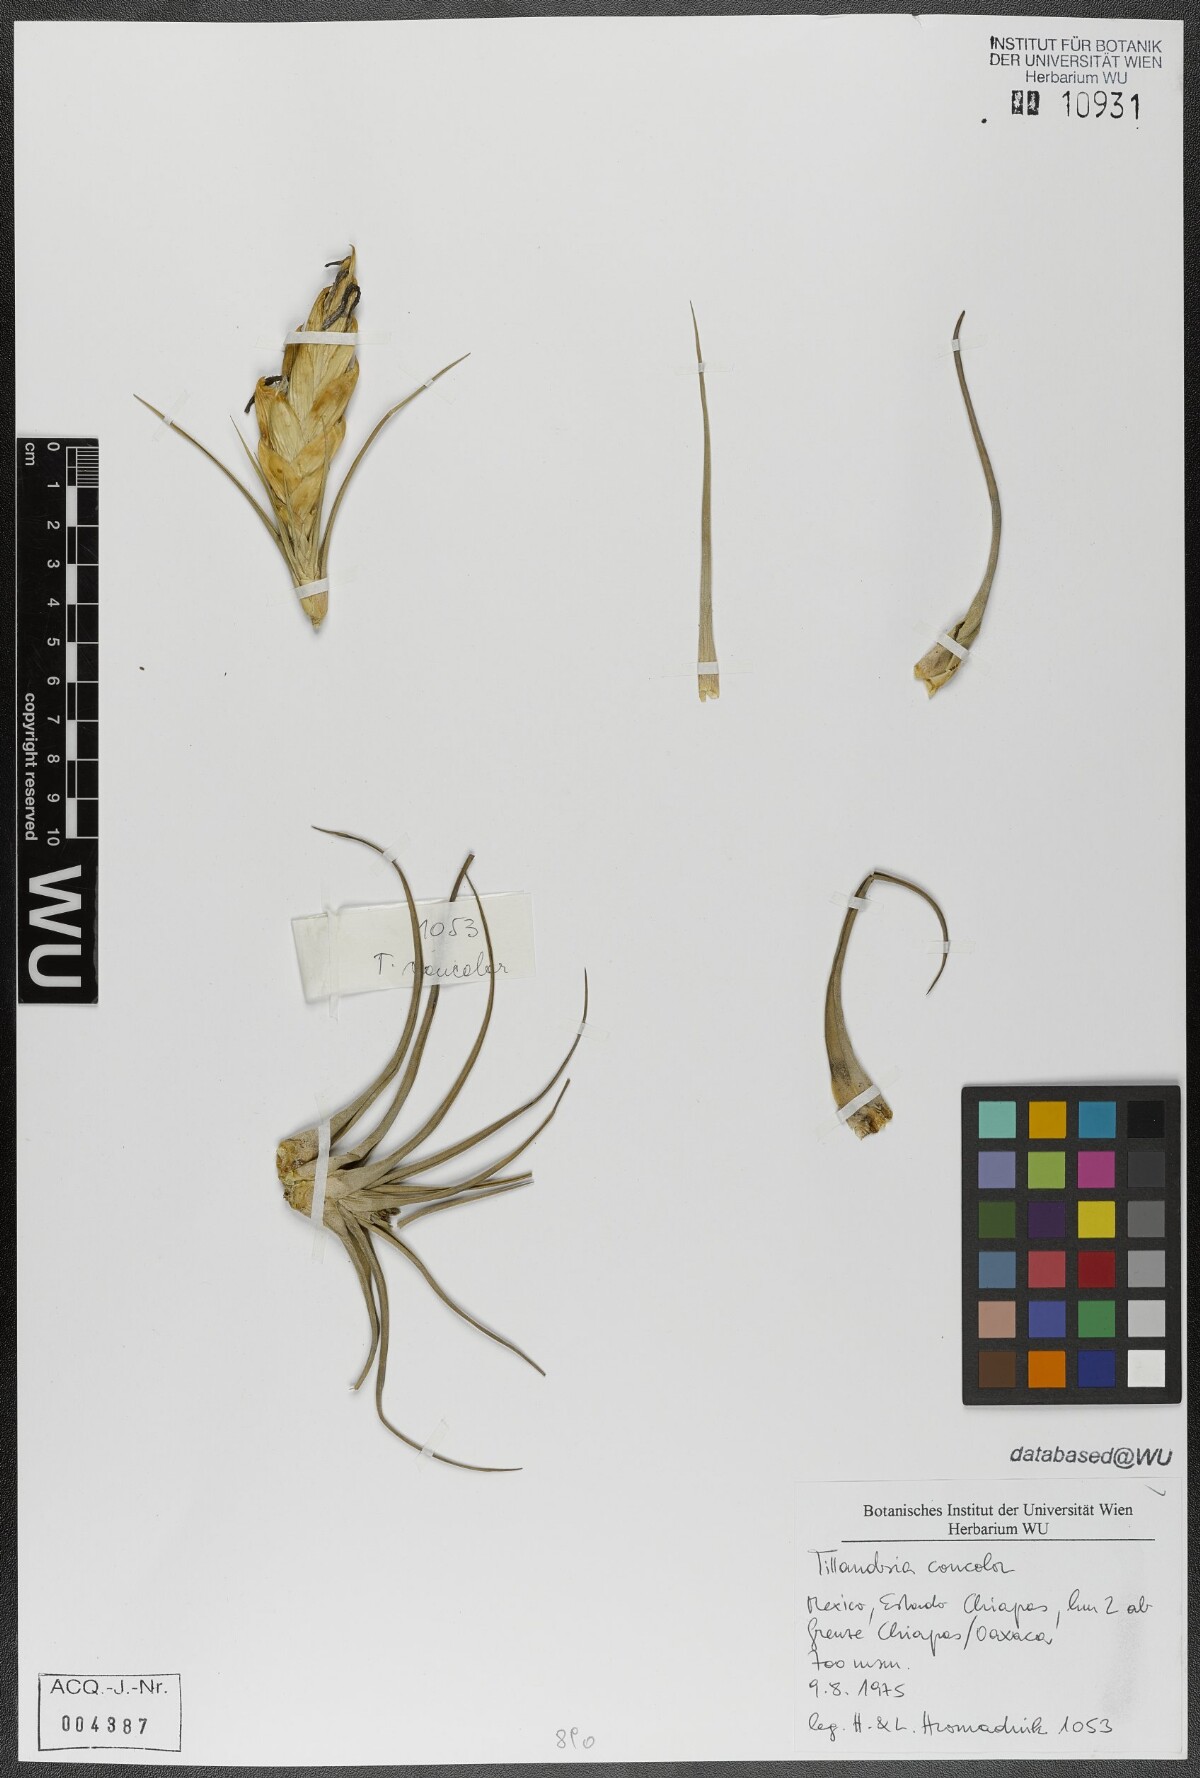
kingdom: Plantae
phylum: Tracheophyta
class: Liliopsida
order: Poales
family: Bromeliaceae
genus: Tillandsia
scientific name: Tillandsia concolor
